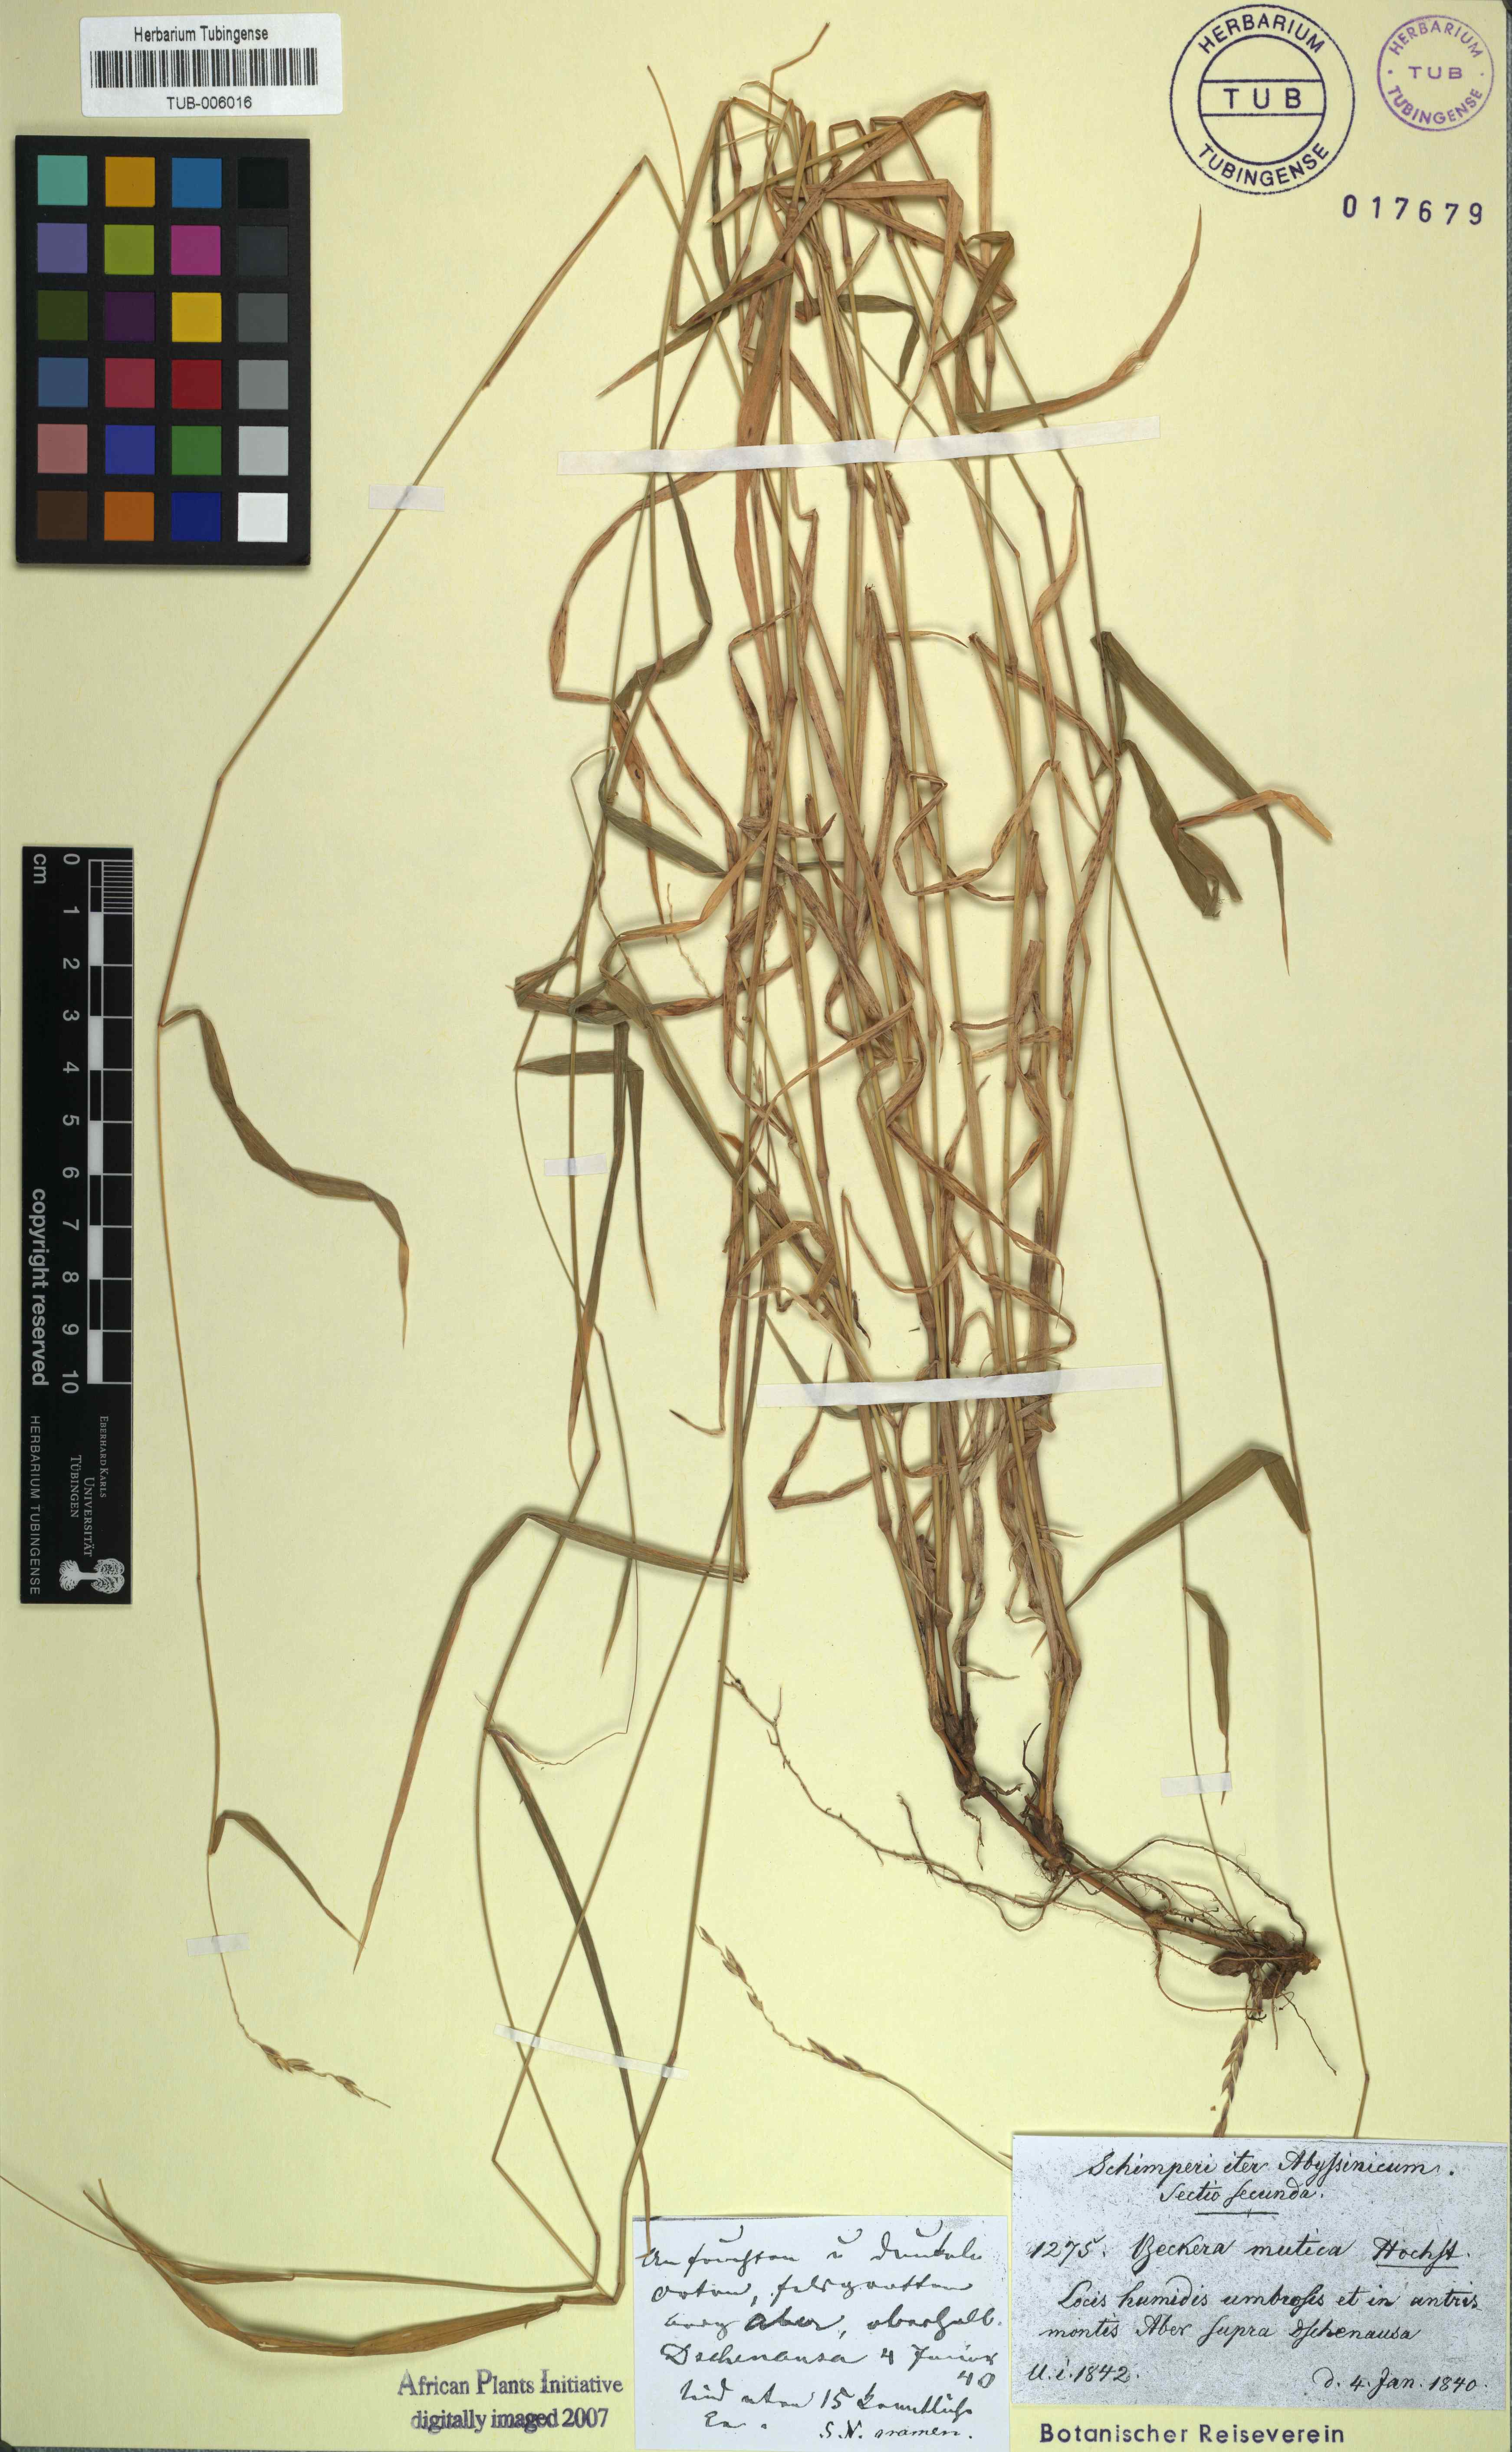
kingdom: Plantae
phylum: Tracheophyta
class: Liliopsida
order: Poales
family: Poaceae
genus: Snowdenia
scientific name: Snowdenia mutica
